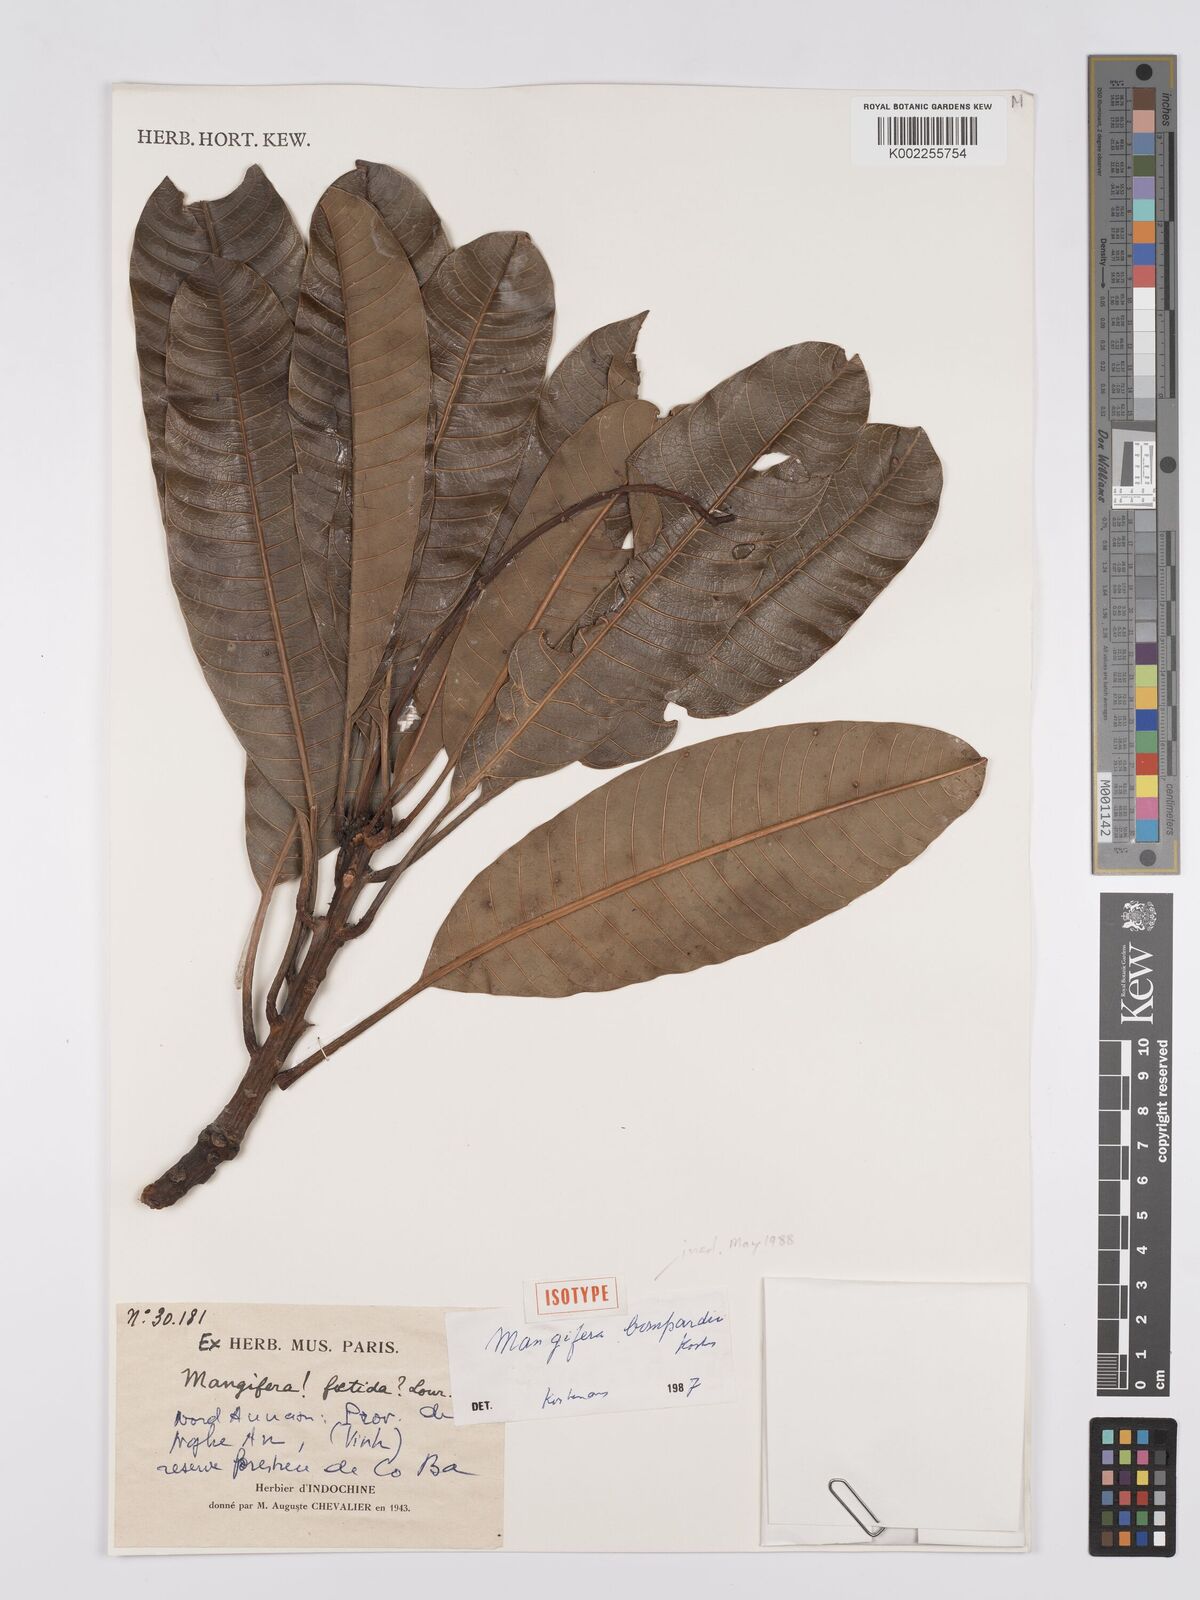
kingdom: Plantae
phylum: Tracheophyta
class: Magnoliopsida
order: Sapindales
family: Anacardiaceae
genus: Mangifera
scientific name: Mangifera
